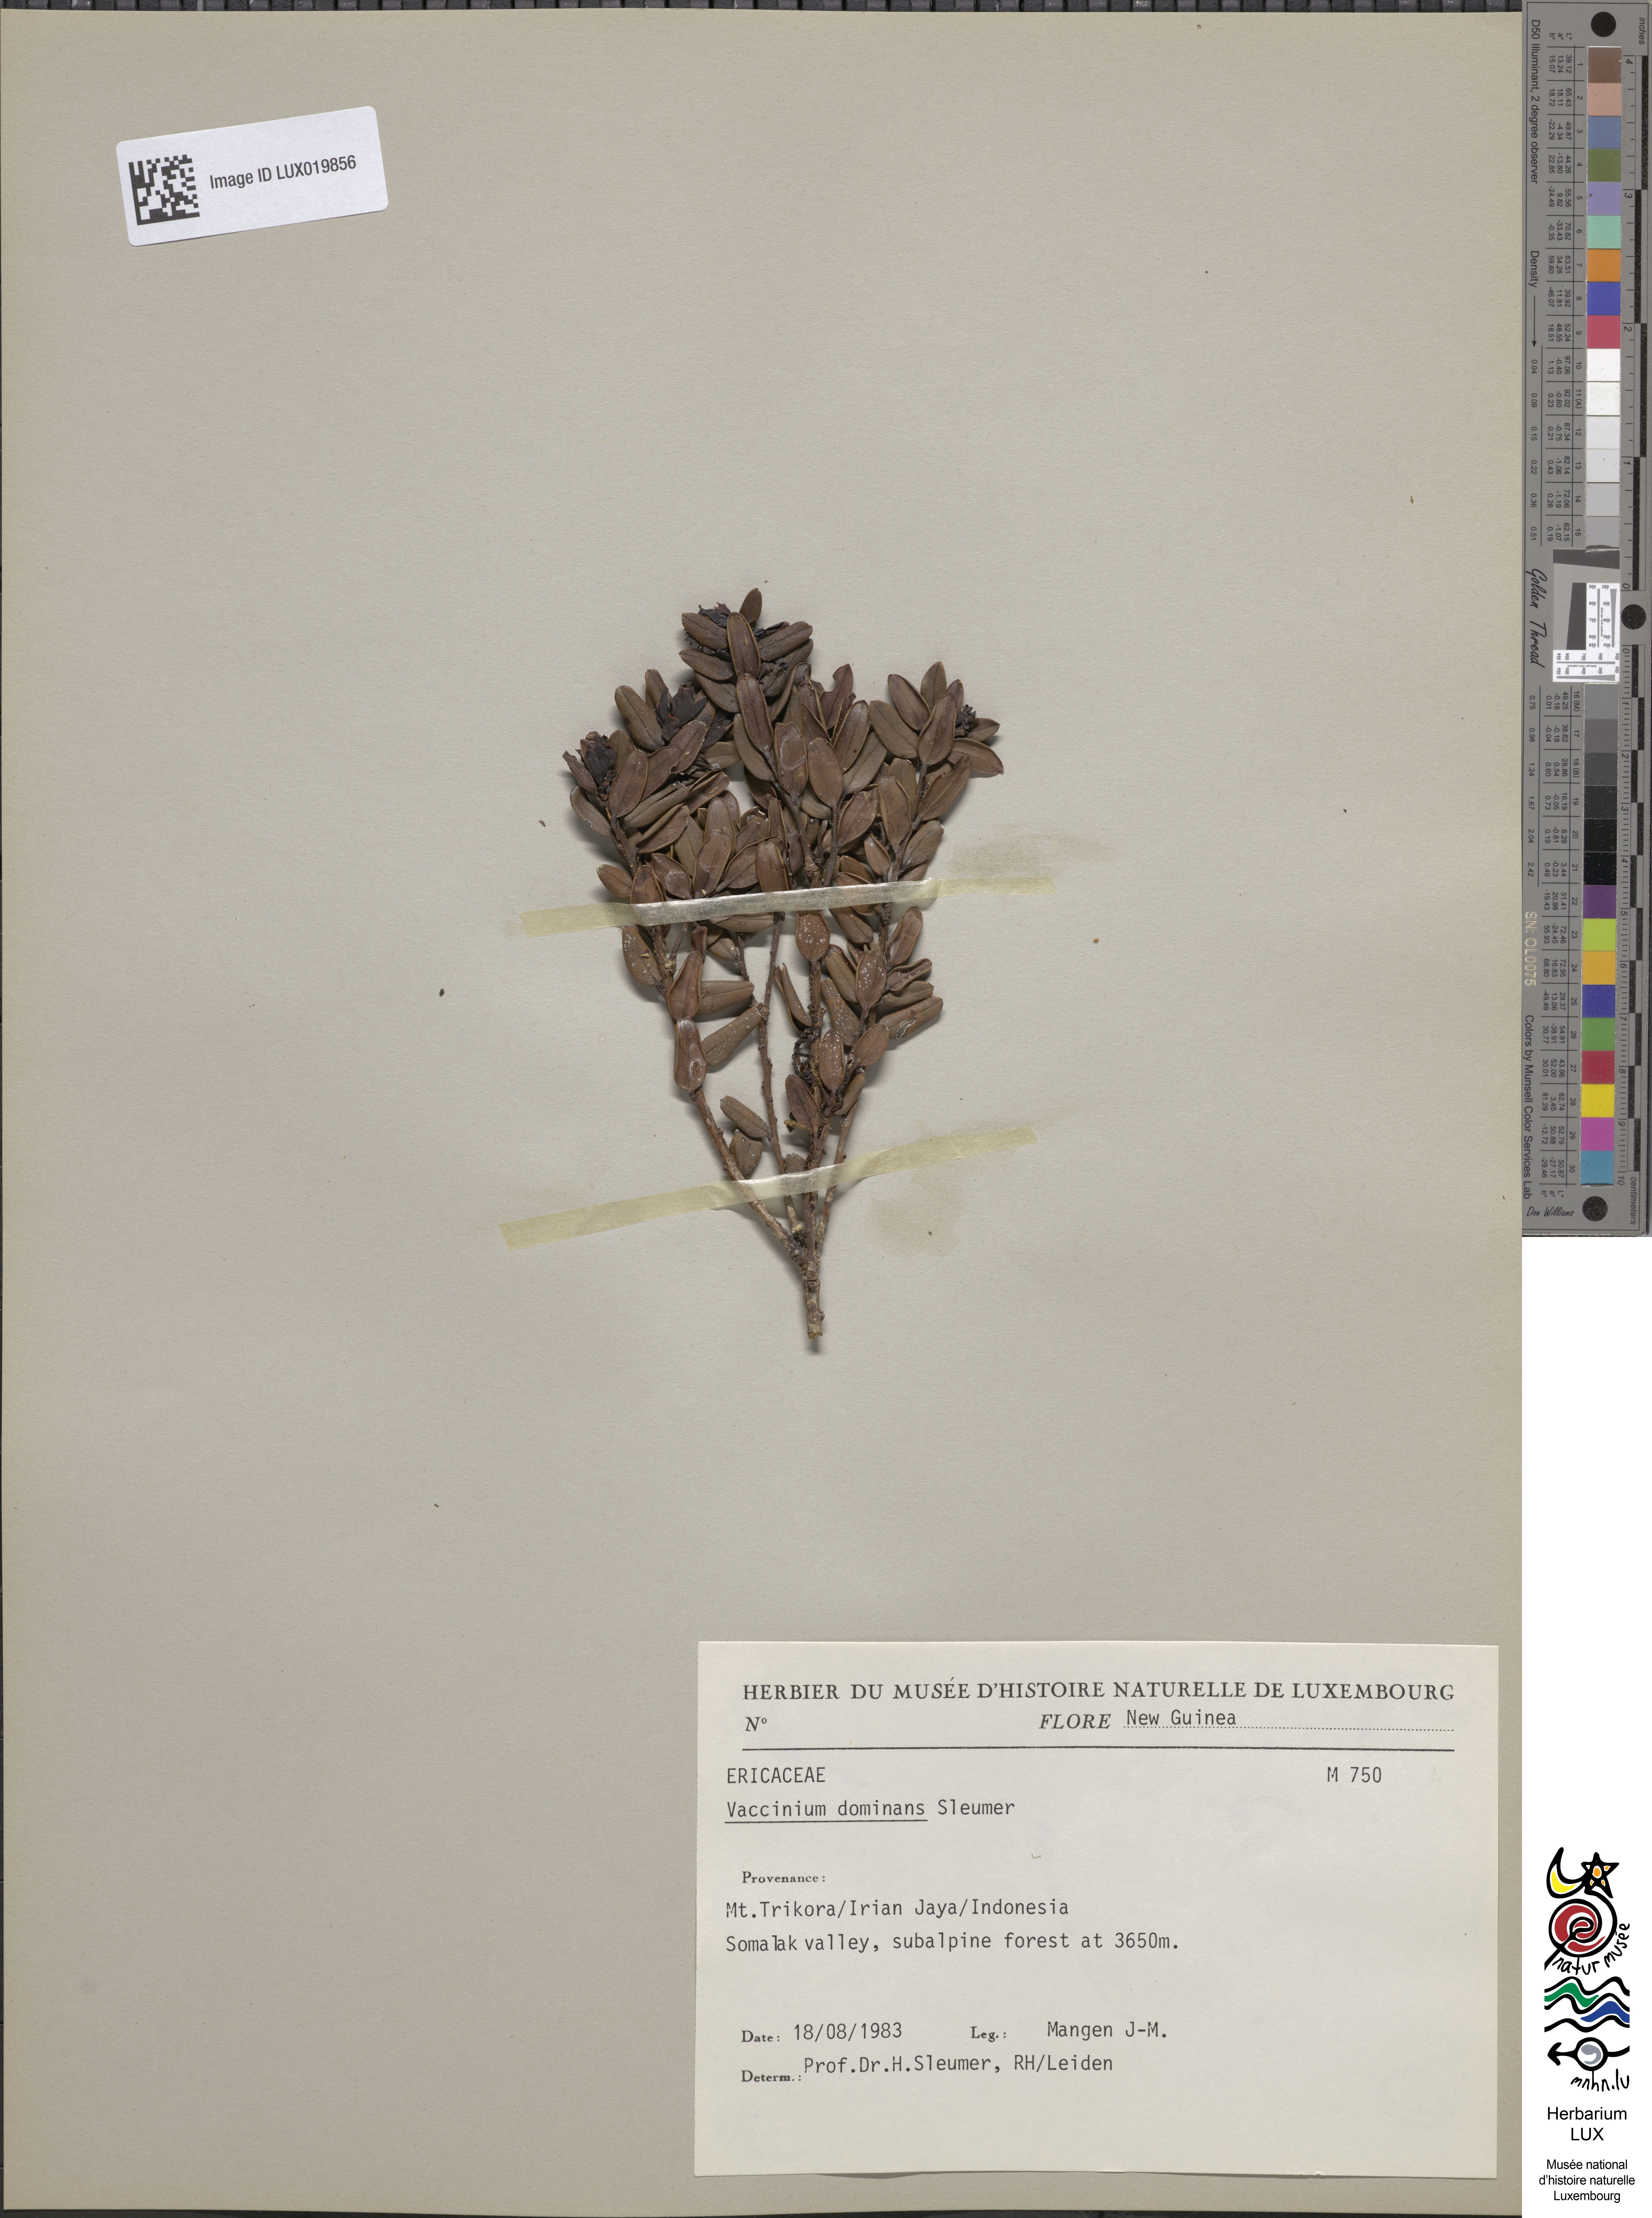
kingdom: Plantae
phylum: Tracheophyta
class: Magnoliopsida
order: Ericales
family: Ericaceae
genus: Vaccinium
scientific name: Vaccinium dominans
